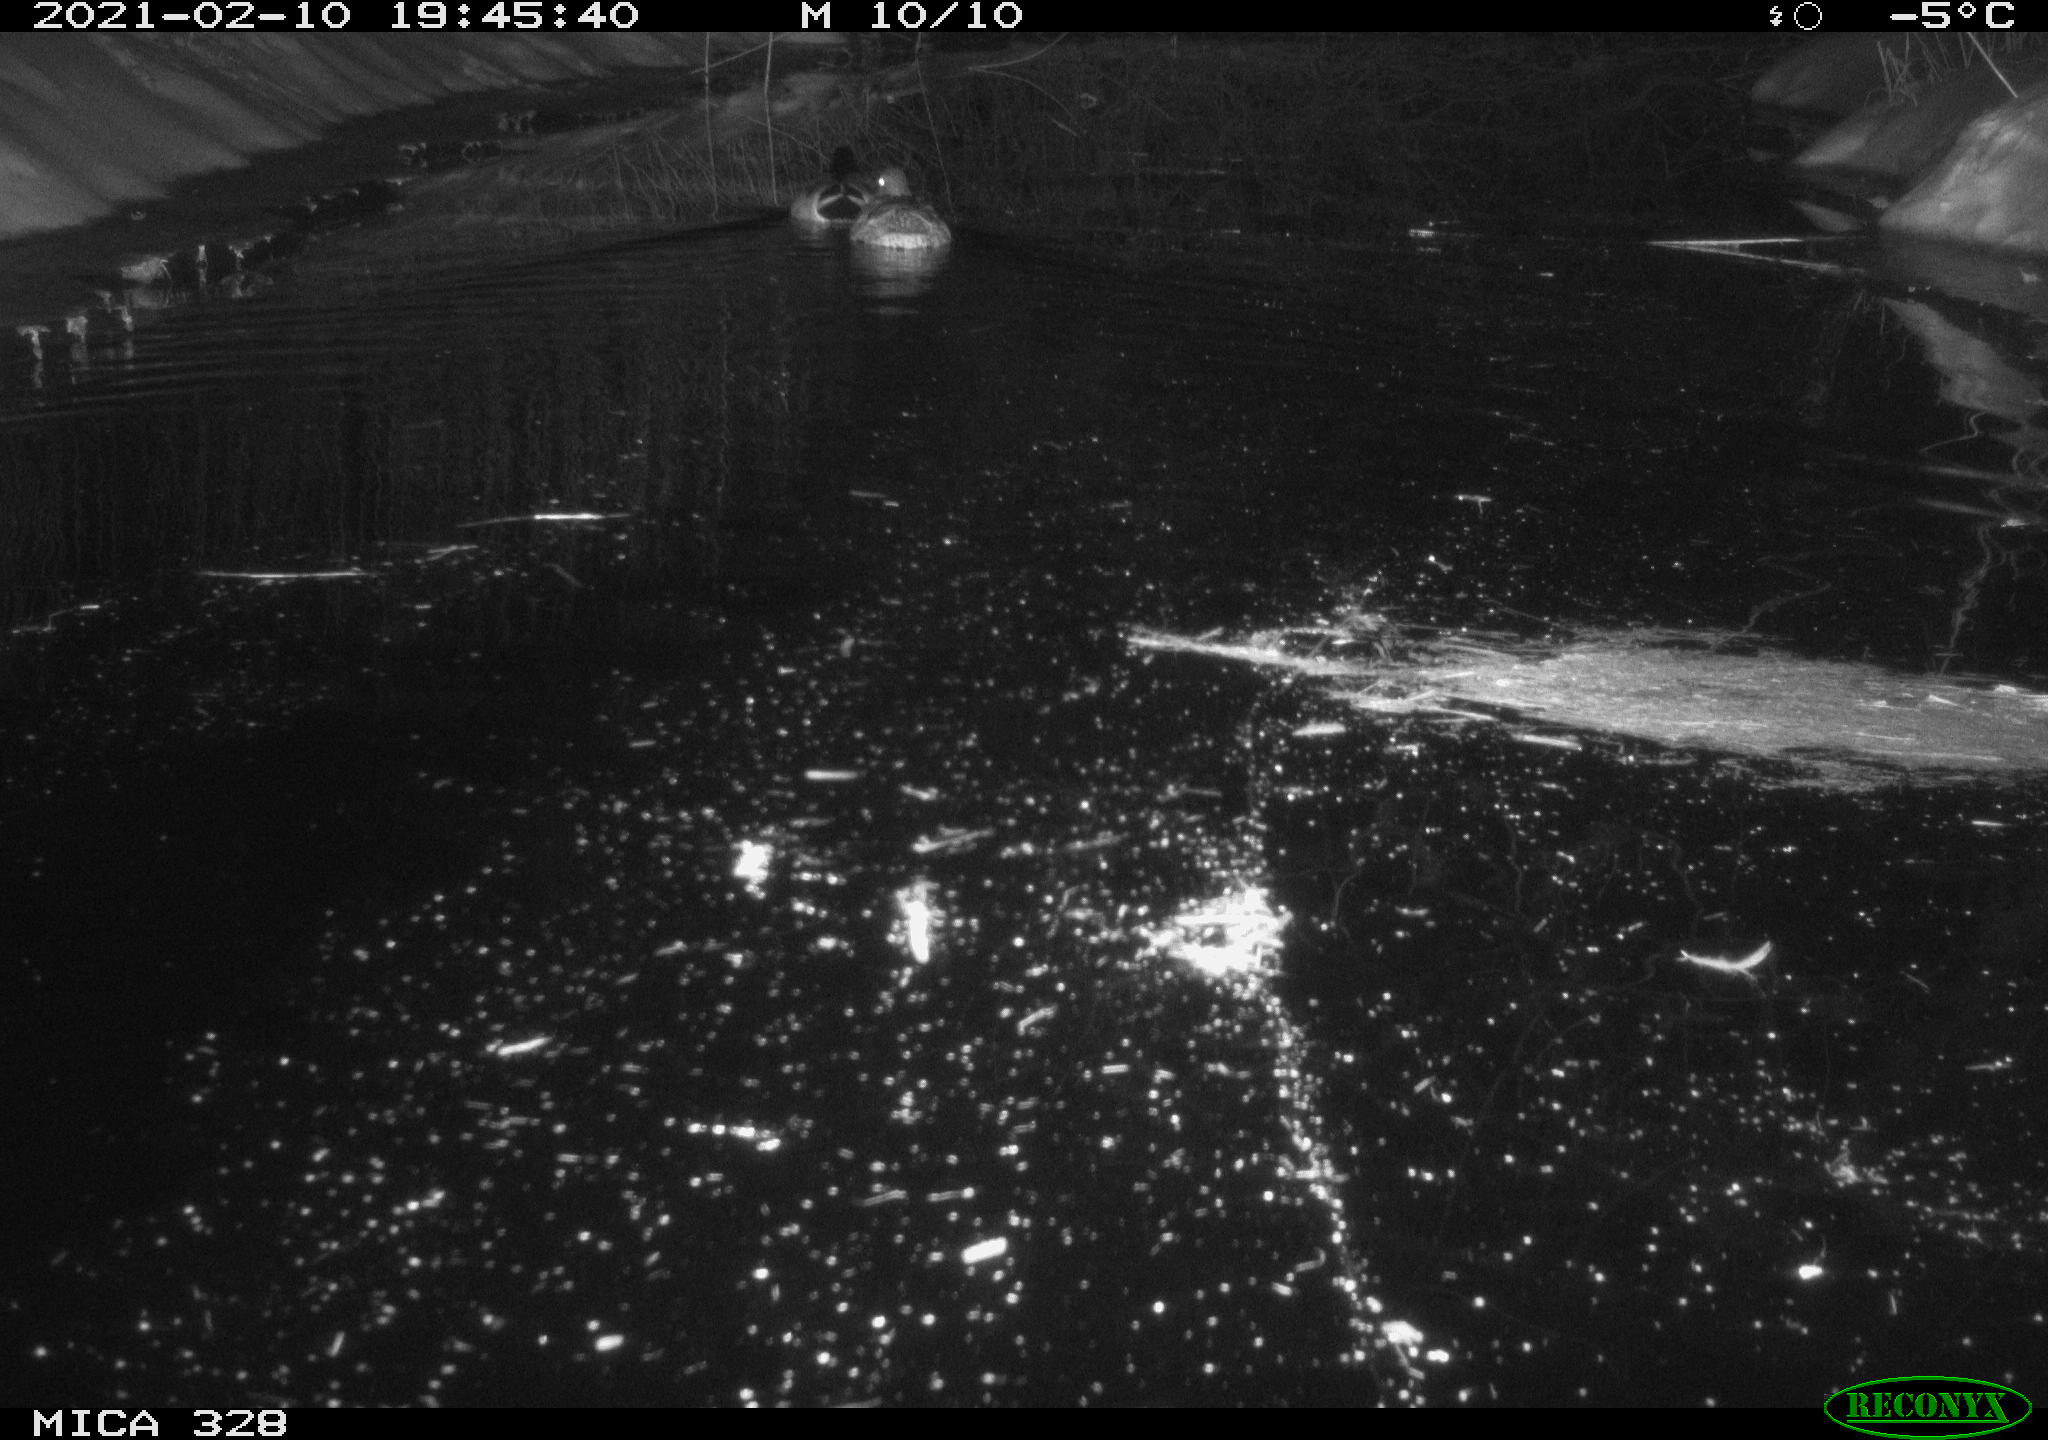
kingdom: Animalia
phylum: Chordata
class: Aves
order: Anseriformes
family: Anatidae
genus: Anas
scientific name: Anas platyrhynchos
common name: Mallard
